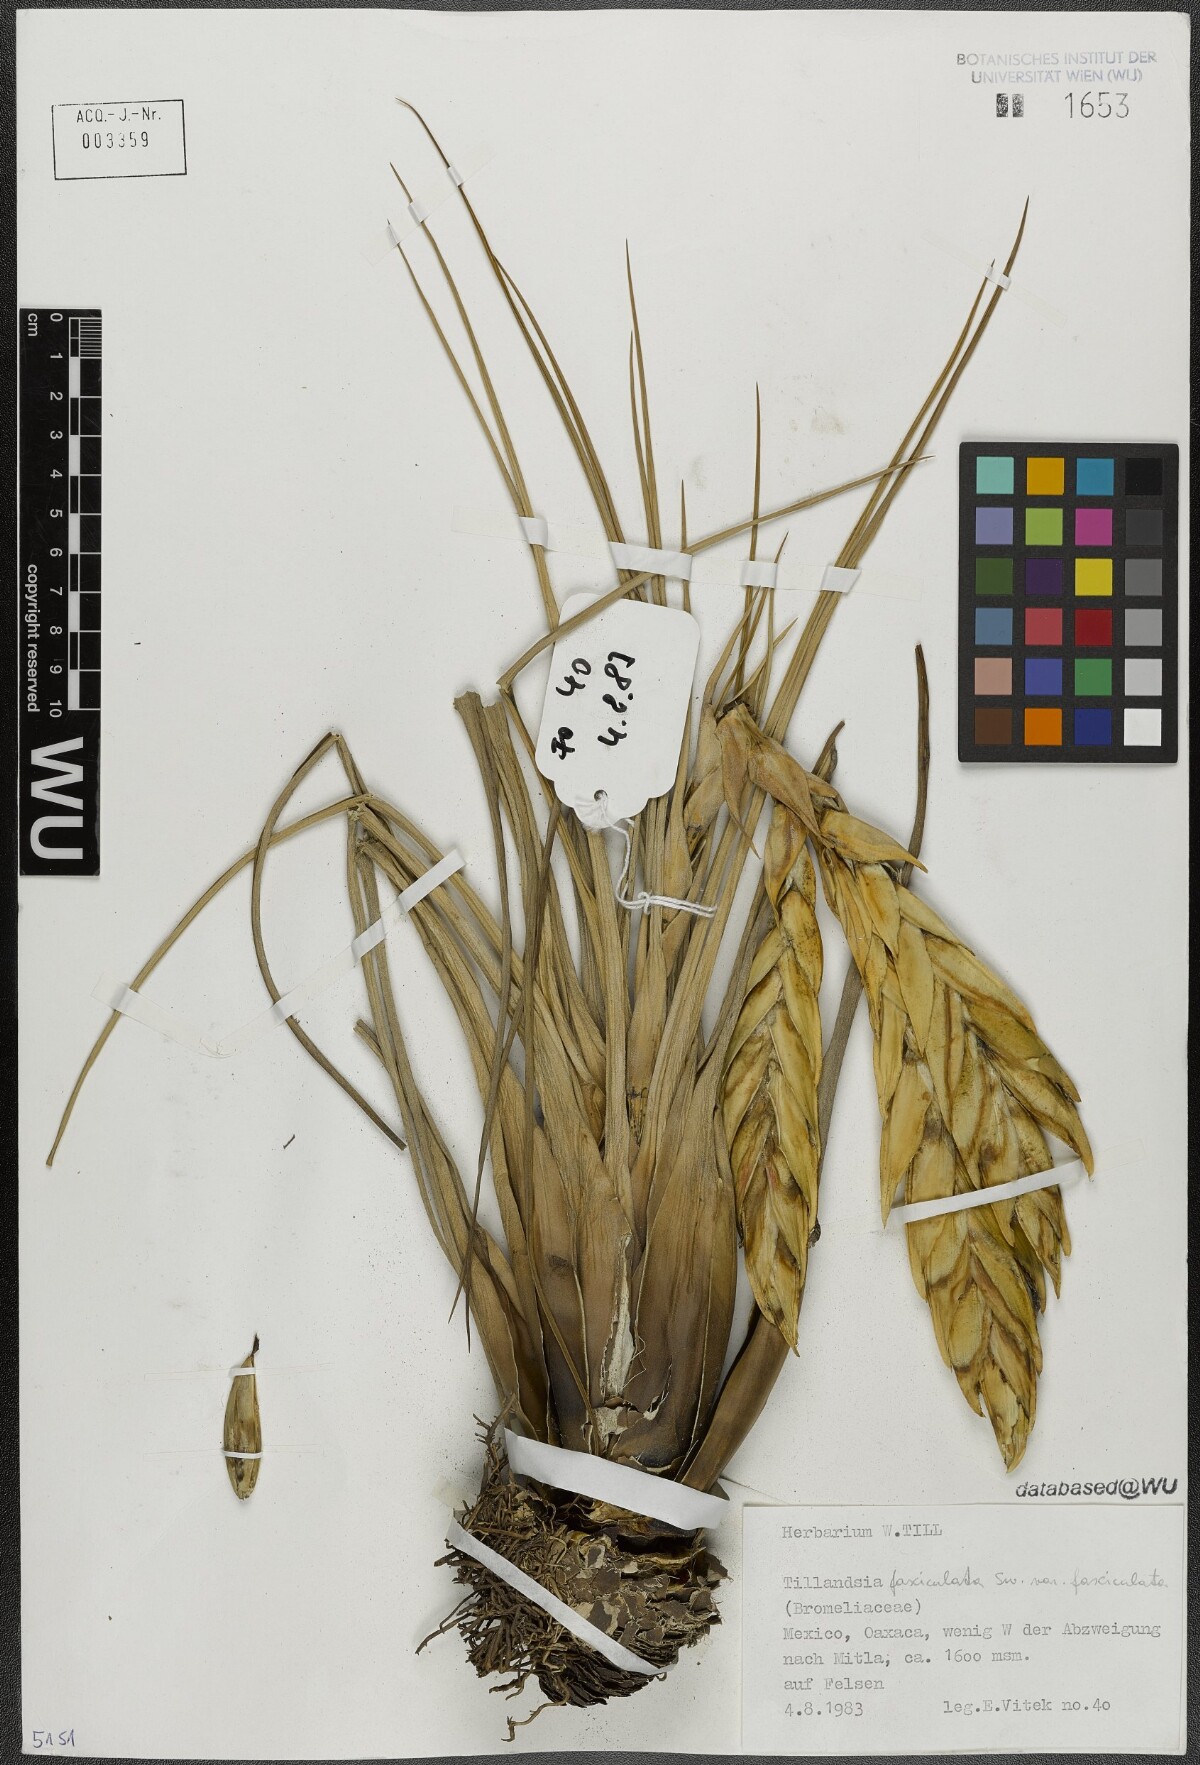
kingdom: Plantae
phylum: Tracheophyta
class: Liliopsida
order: Poales
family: Bromeliaceae
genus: Tillandsia
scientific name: Tillandsia fasciculata
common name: Giant airplant
